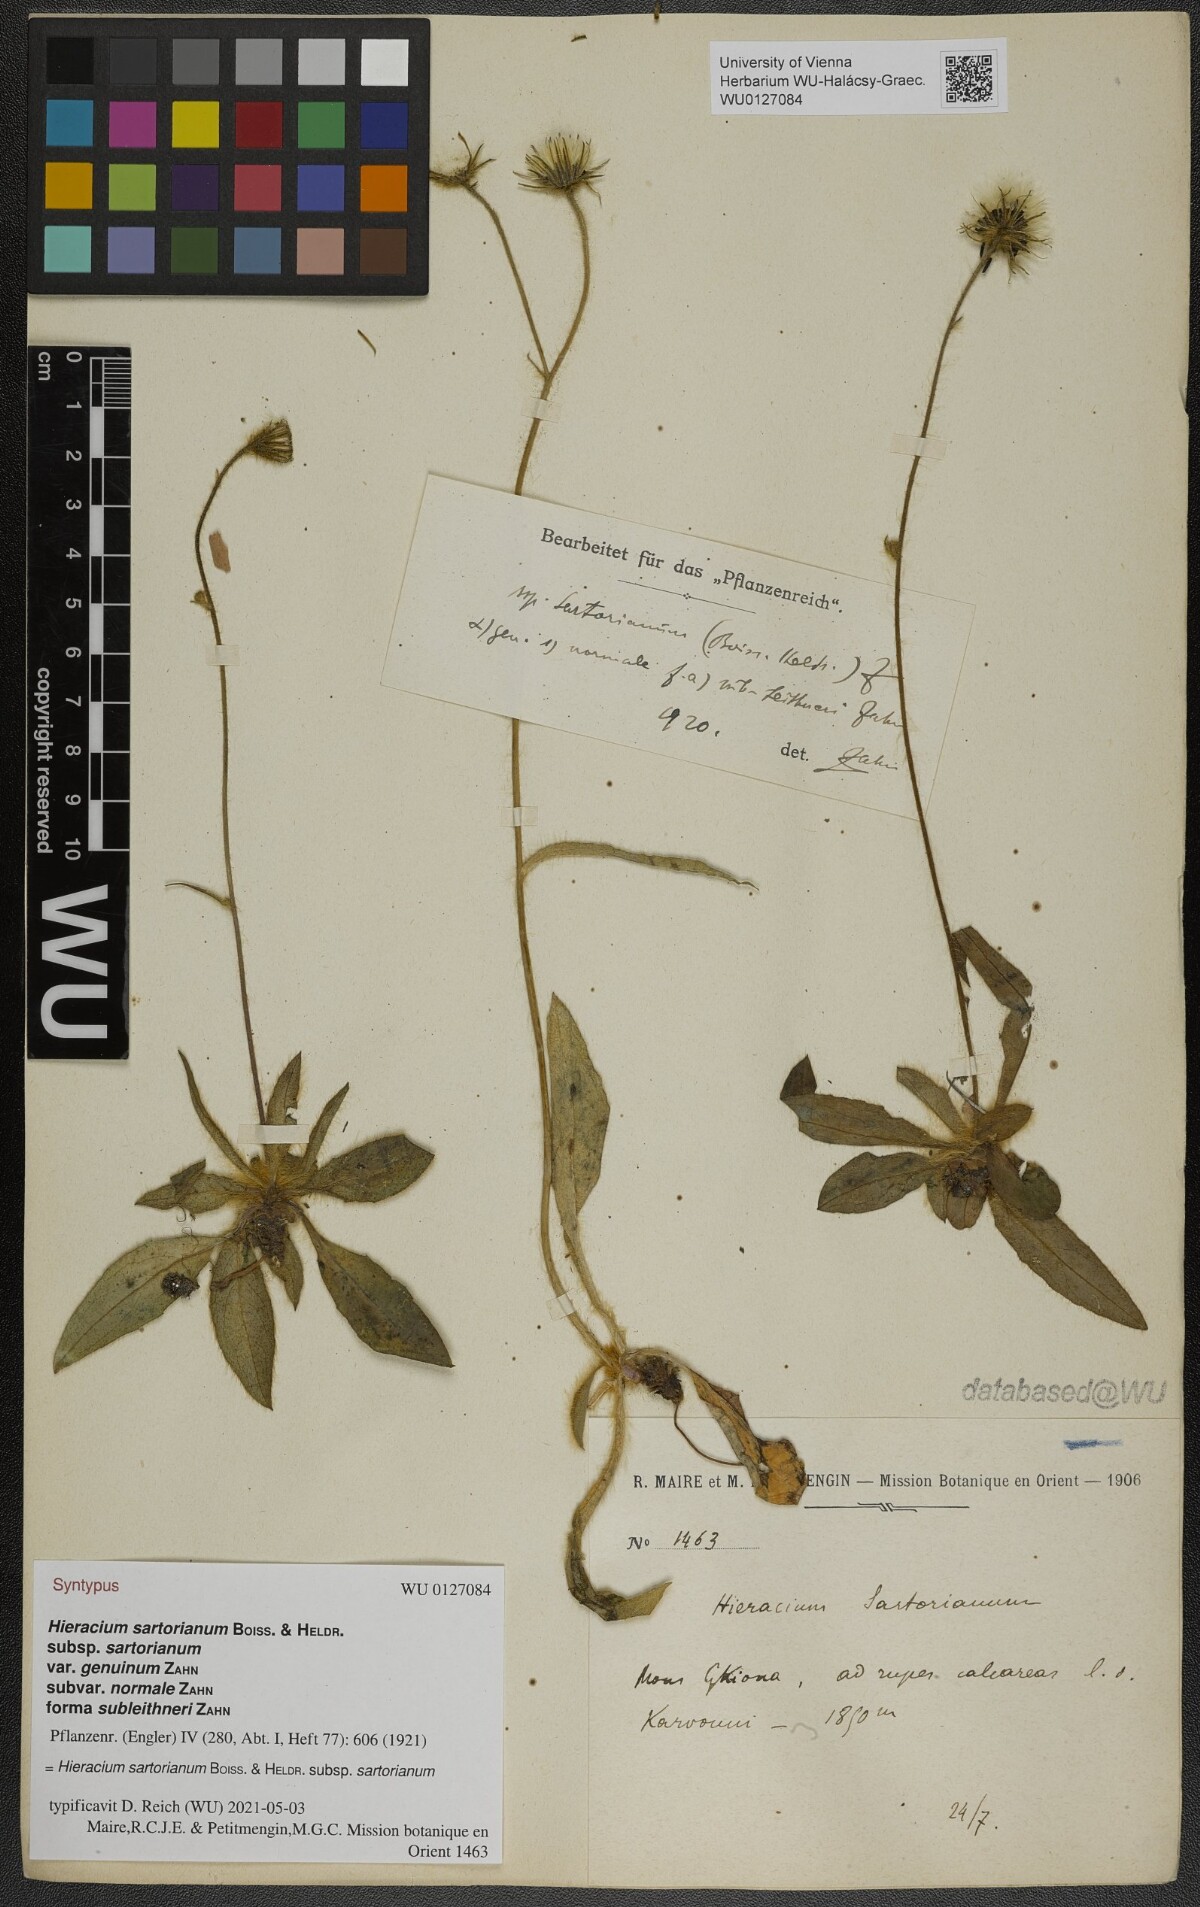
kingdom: Plantae
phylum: Tracheophyta
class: Magnoliopsida
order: Asterales
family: Asteraceae
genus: Hieracium
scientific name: Hieracium sartorianum
